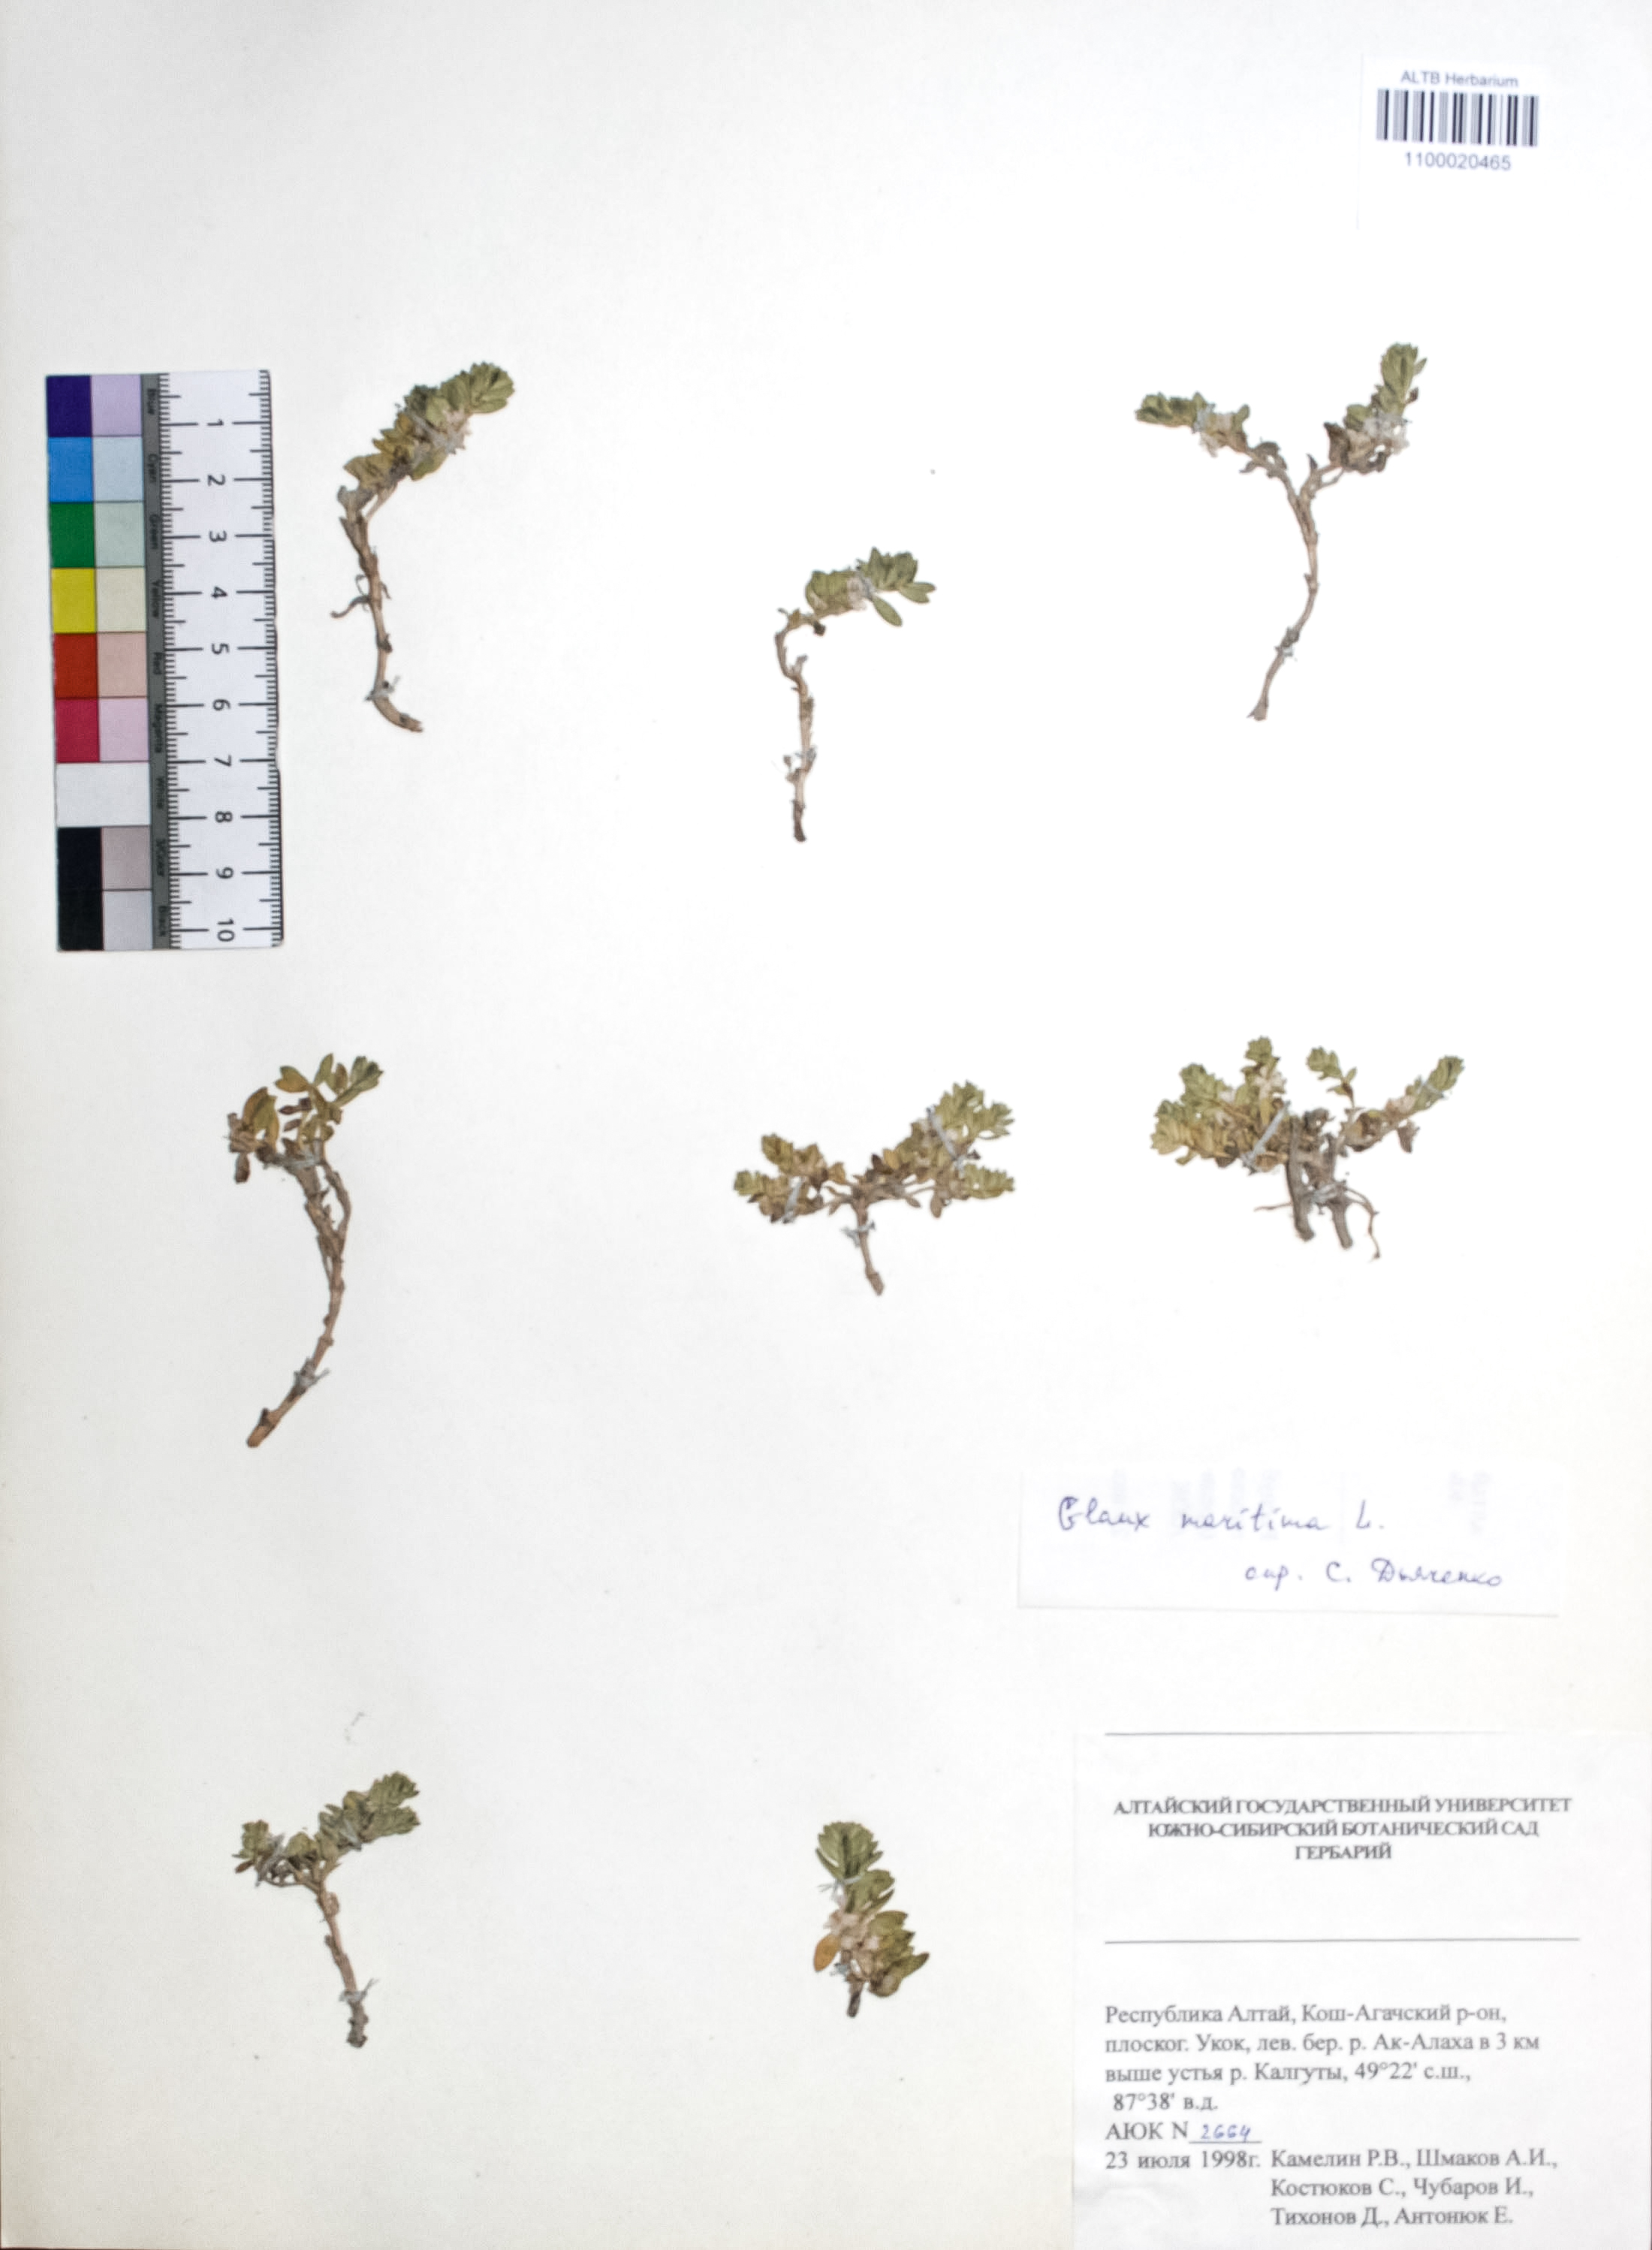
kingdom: Plantae
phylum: Tracheophyta
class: Magnoliopsida
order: Ericales
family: Primulaceae
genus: Lysimachia
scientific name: Lysimachia maritima
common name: Sea milkwort
